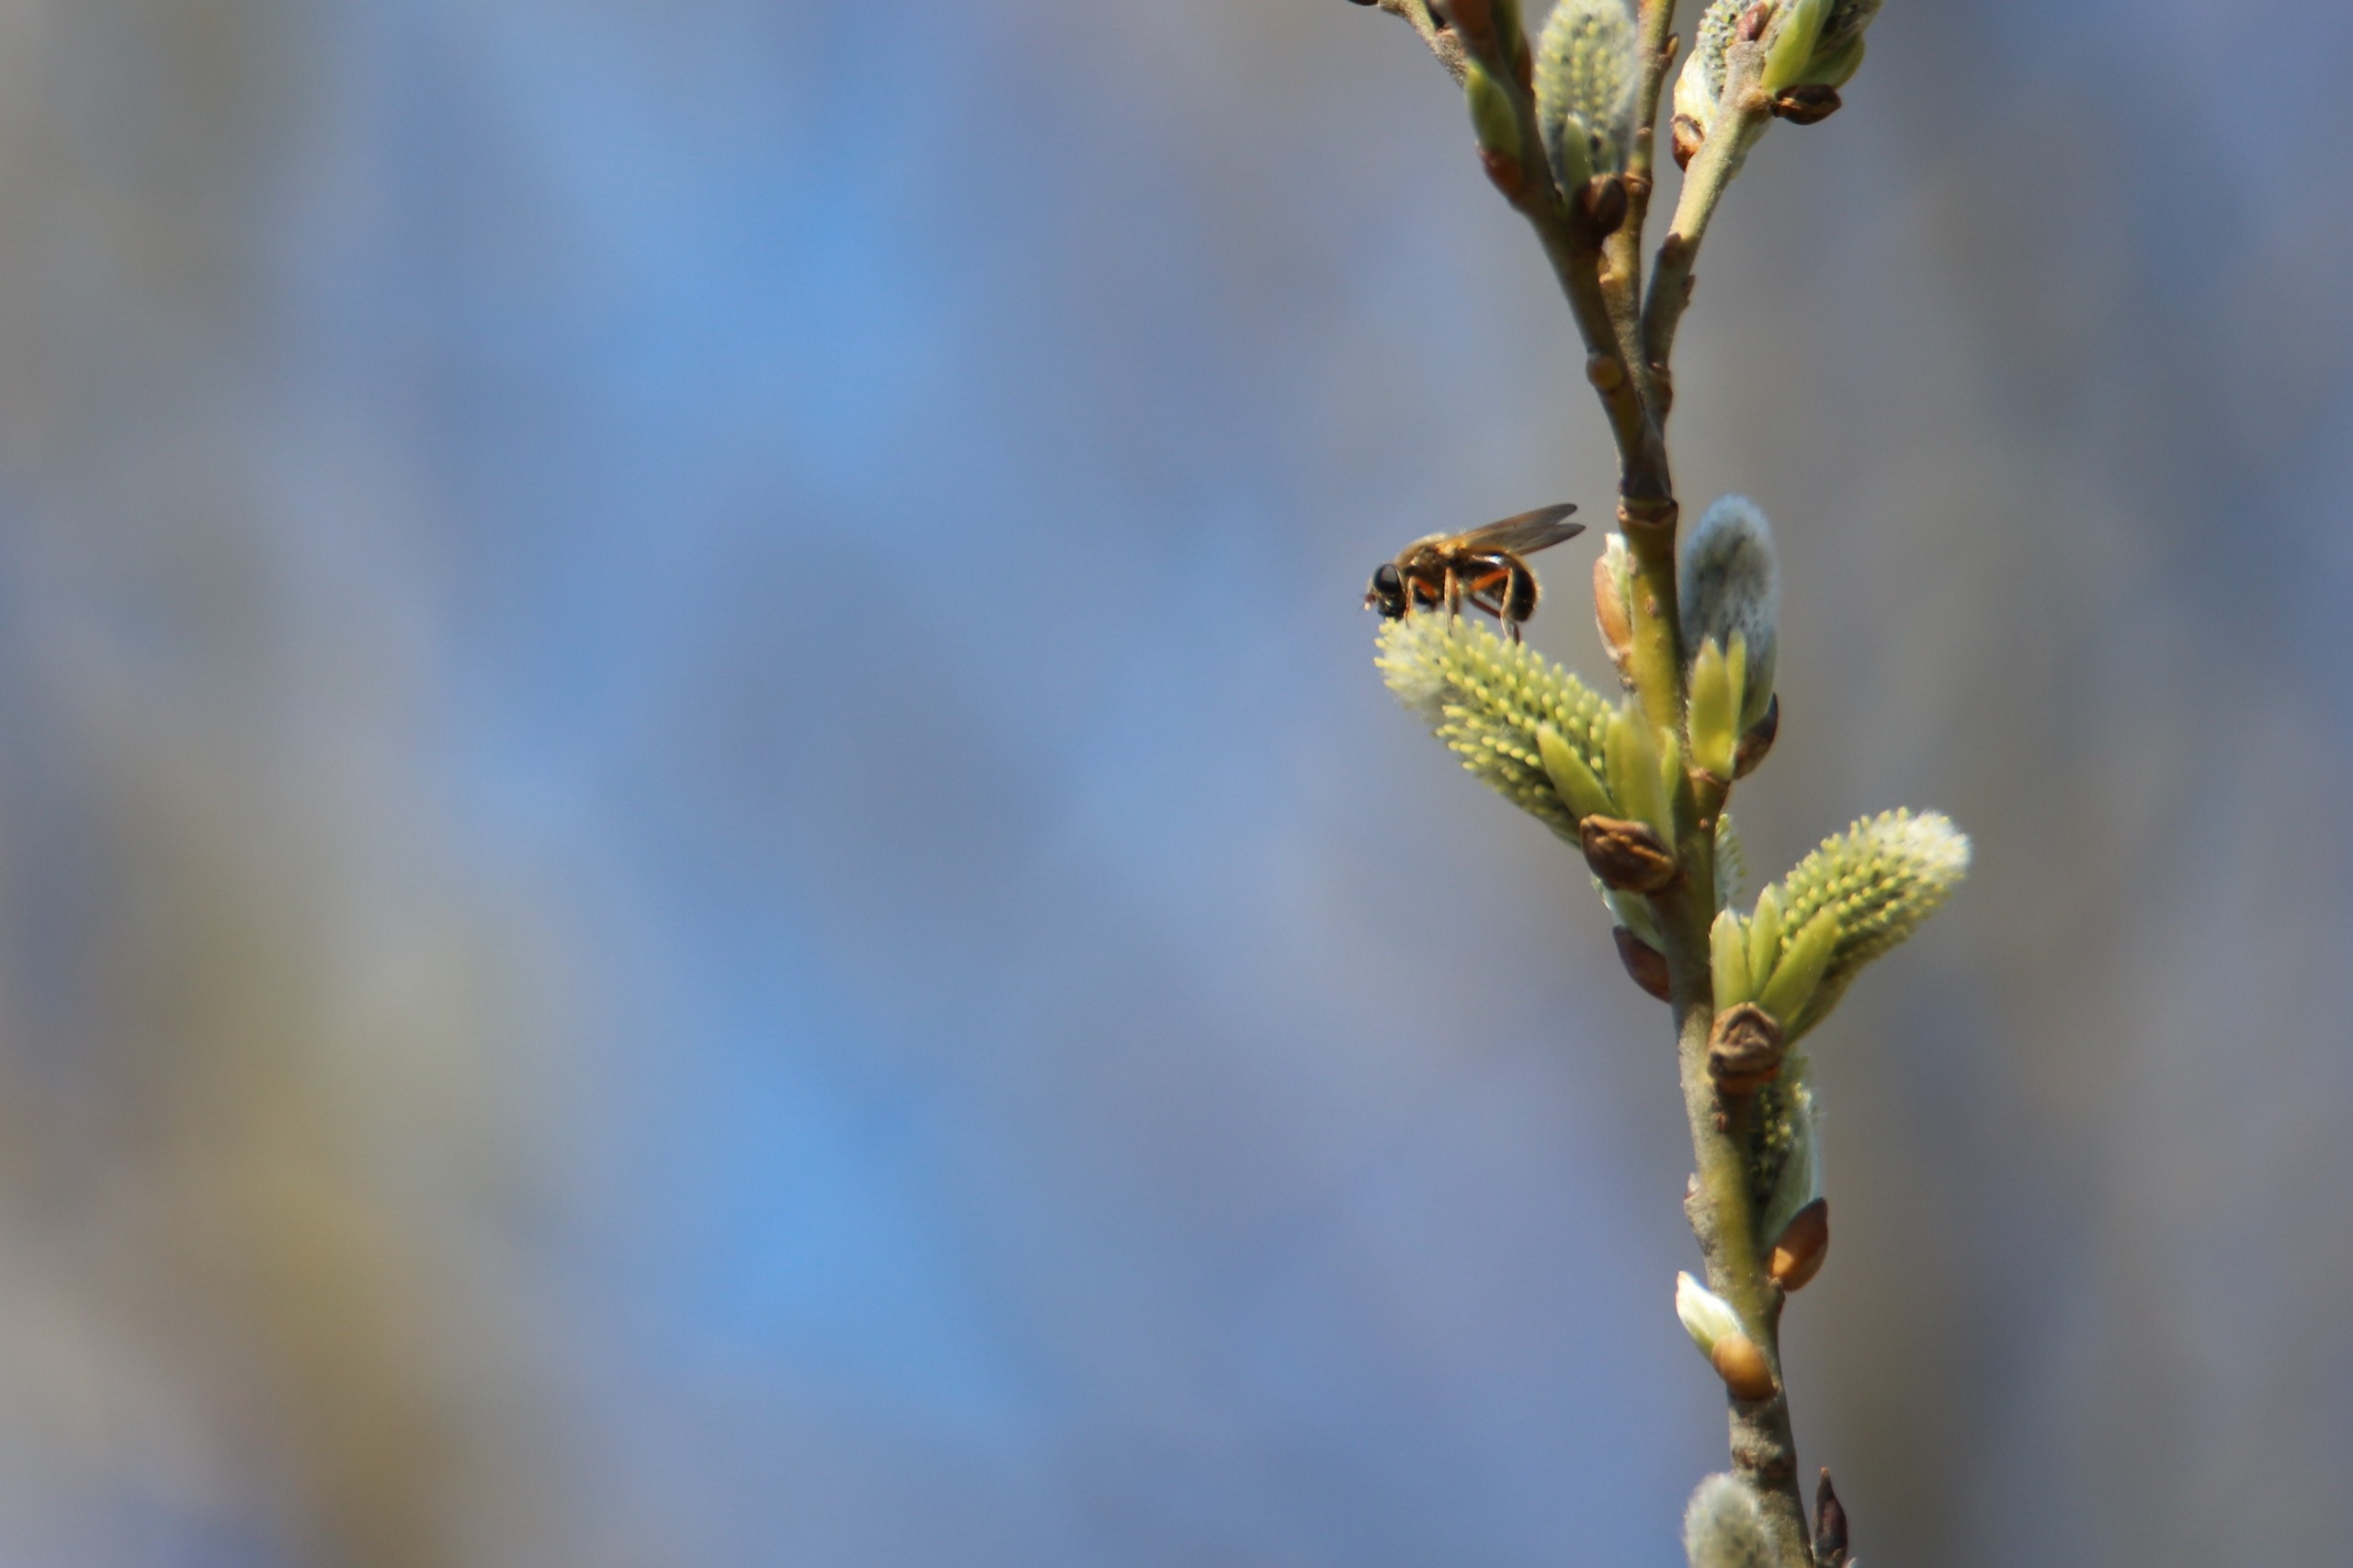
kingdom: Animalia
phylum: Arthropoda
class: Insecta
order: Diptera
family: Syrphidae
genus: Cheilosia
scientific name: Cheilosia albipila
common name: Hvidhåret urtesvirreflue
